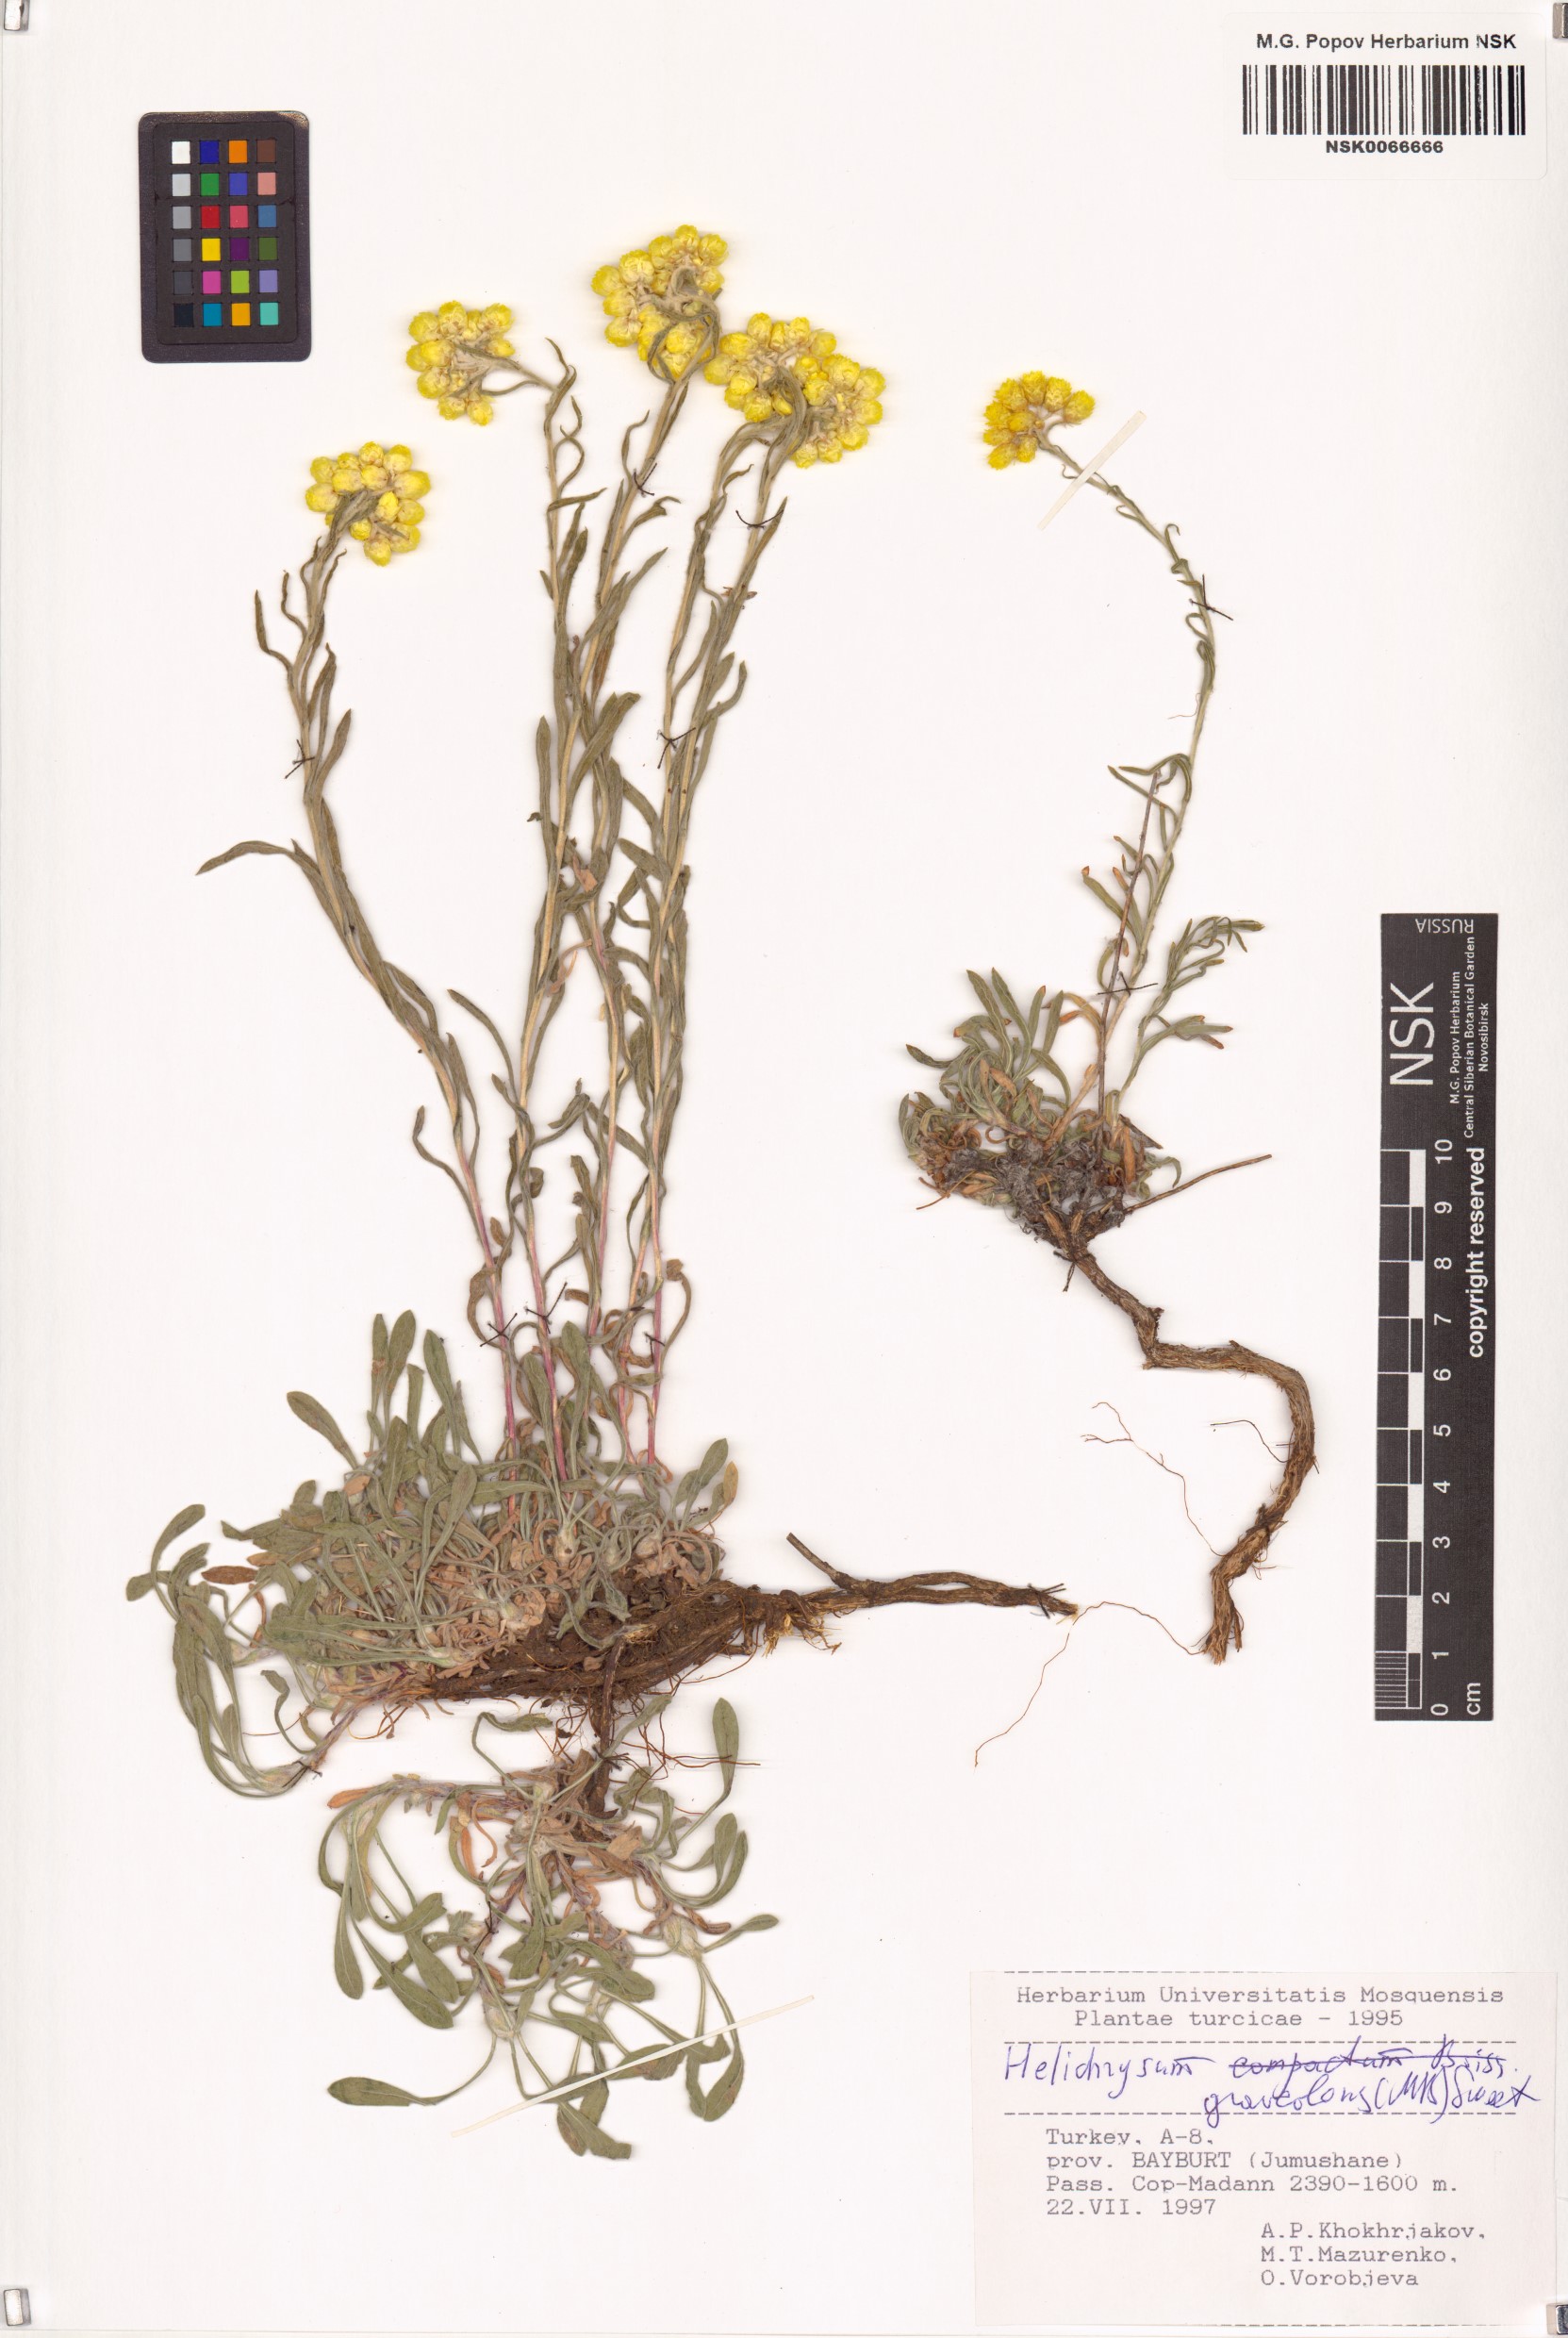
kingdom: Plantae
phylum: Tracheophyta
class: Magnoliopsida
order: Asterales
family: Asteraceae
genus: Helichrysum
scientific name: Helichrysum graveolens
